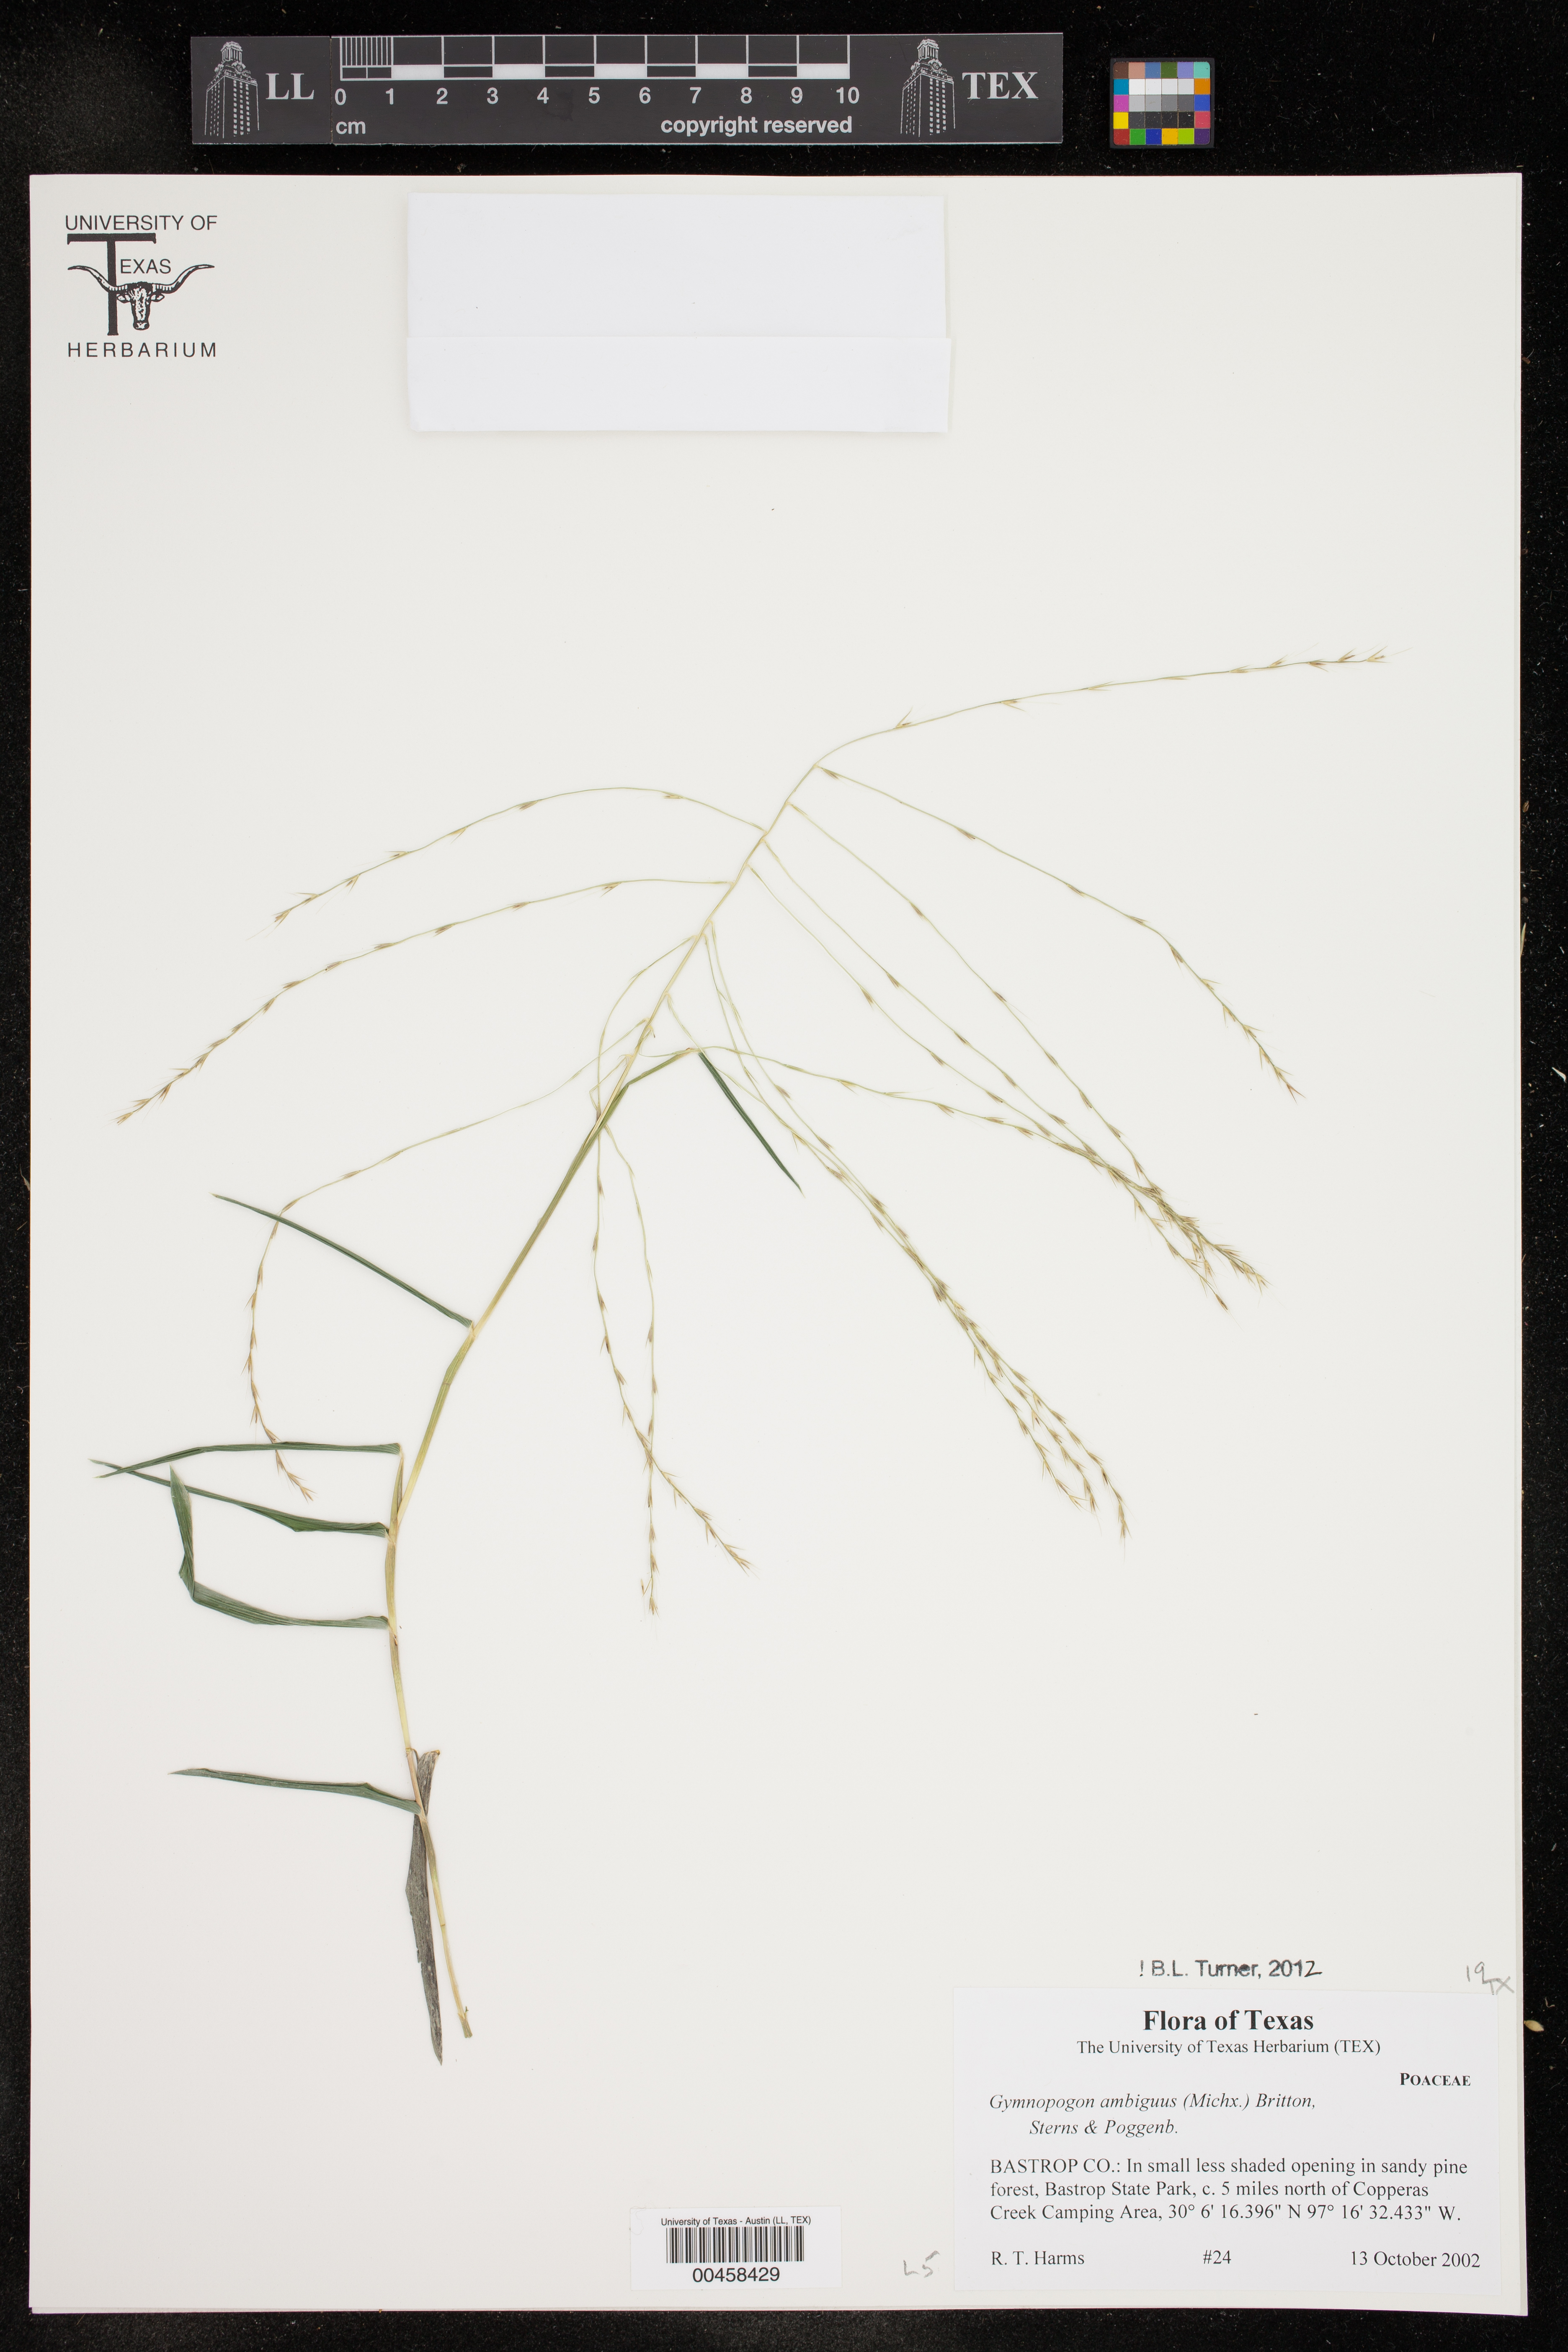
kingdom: Plantae
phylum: Tracheophyta
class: Liliopsida
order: Poales
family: Poaceae
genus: Gymnopogon
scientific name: Gymnopogon ambiguus
